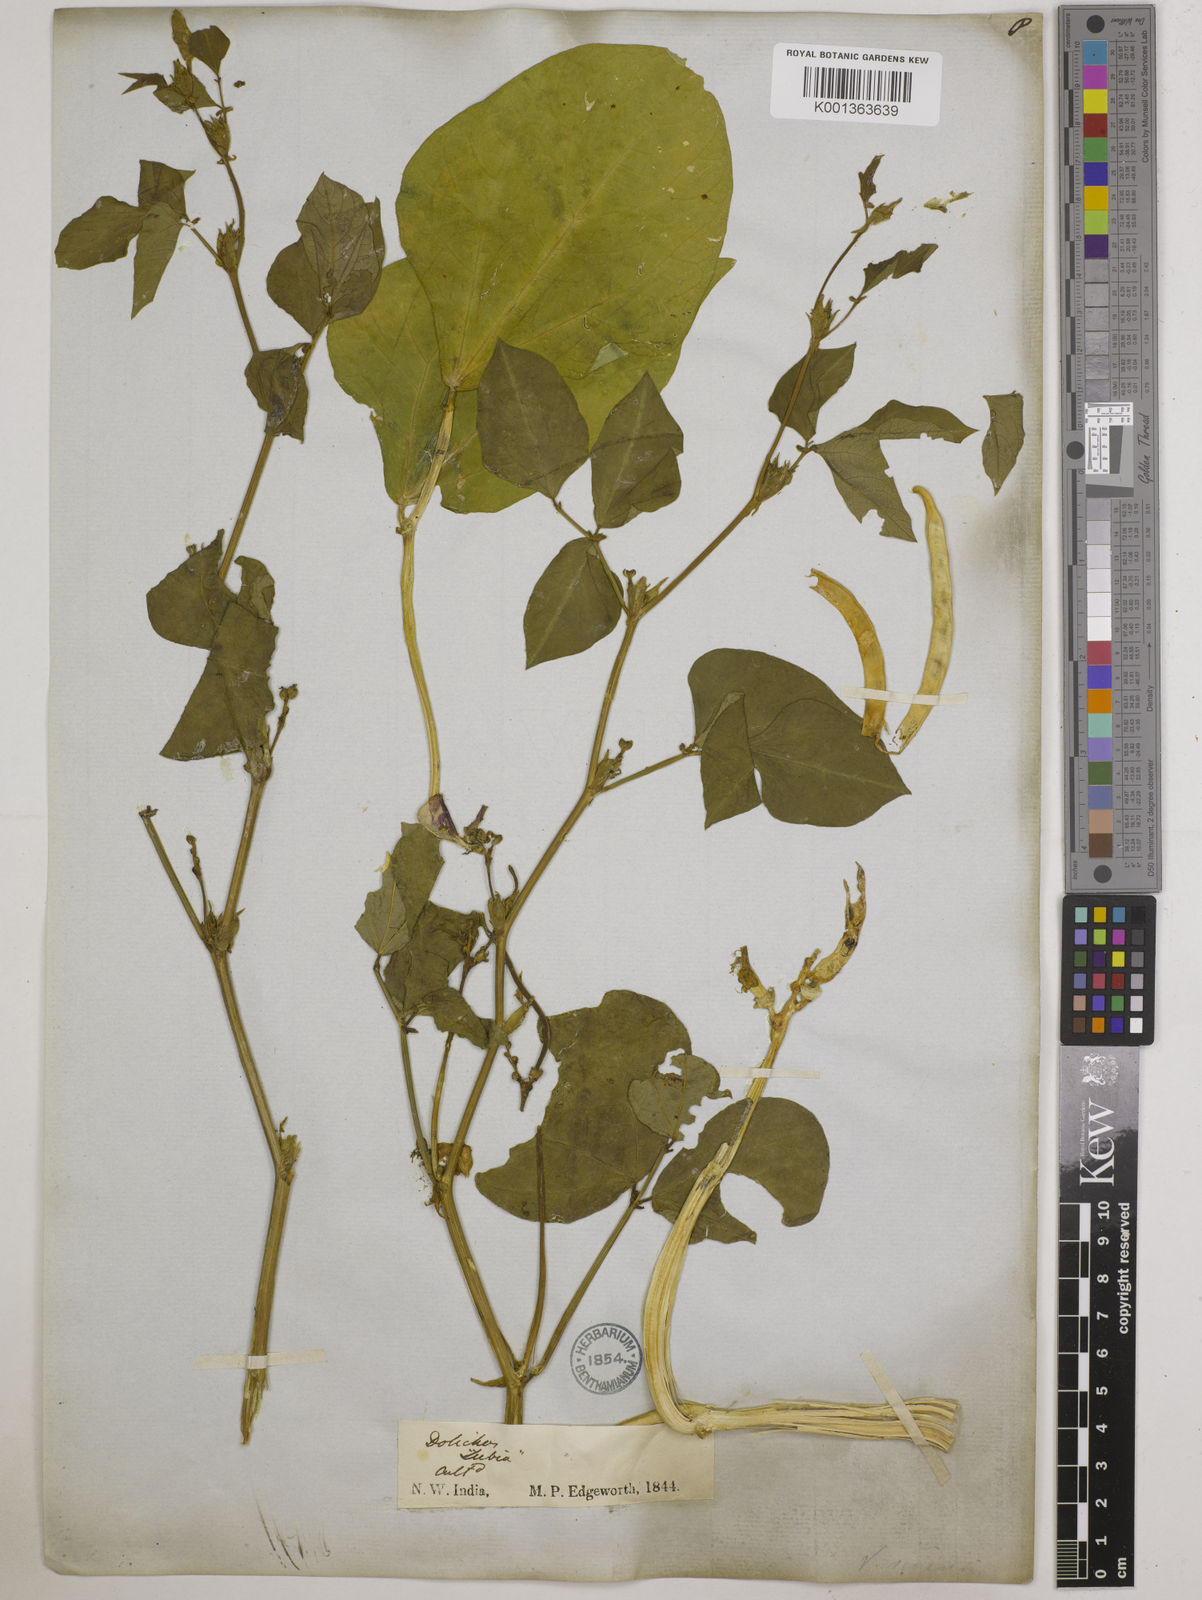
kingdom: Plantae
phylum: Tracheophyta
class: Magnoliopsida
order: Fabales
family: Fabaceae
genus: Vigna
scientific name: Vigna unguiculata
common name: Cowpea
